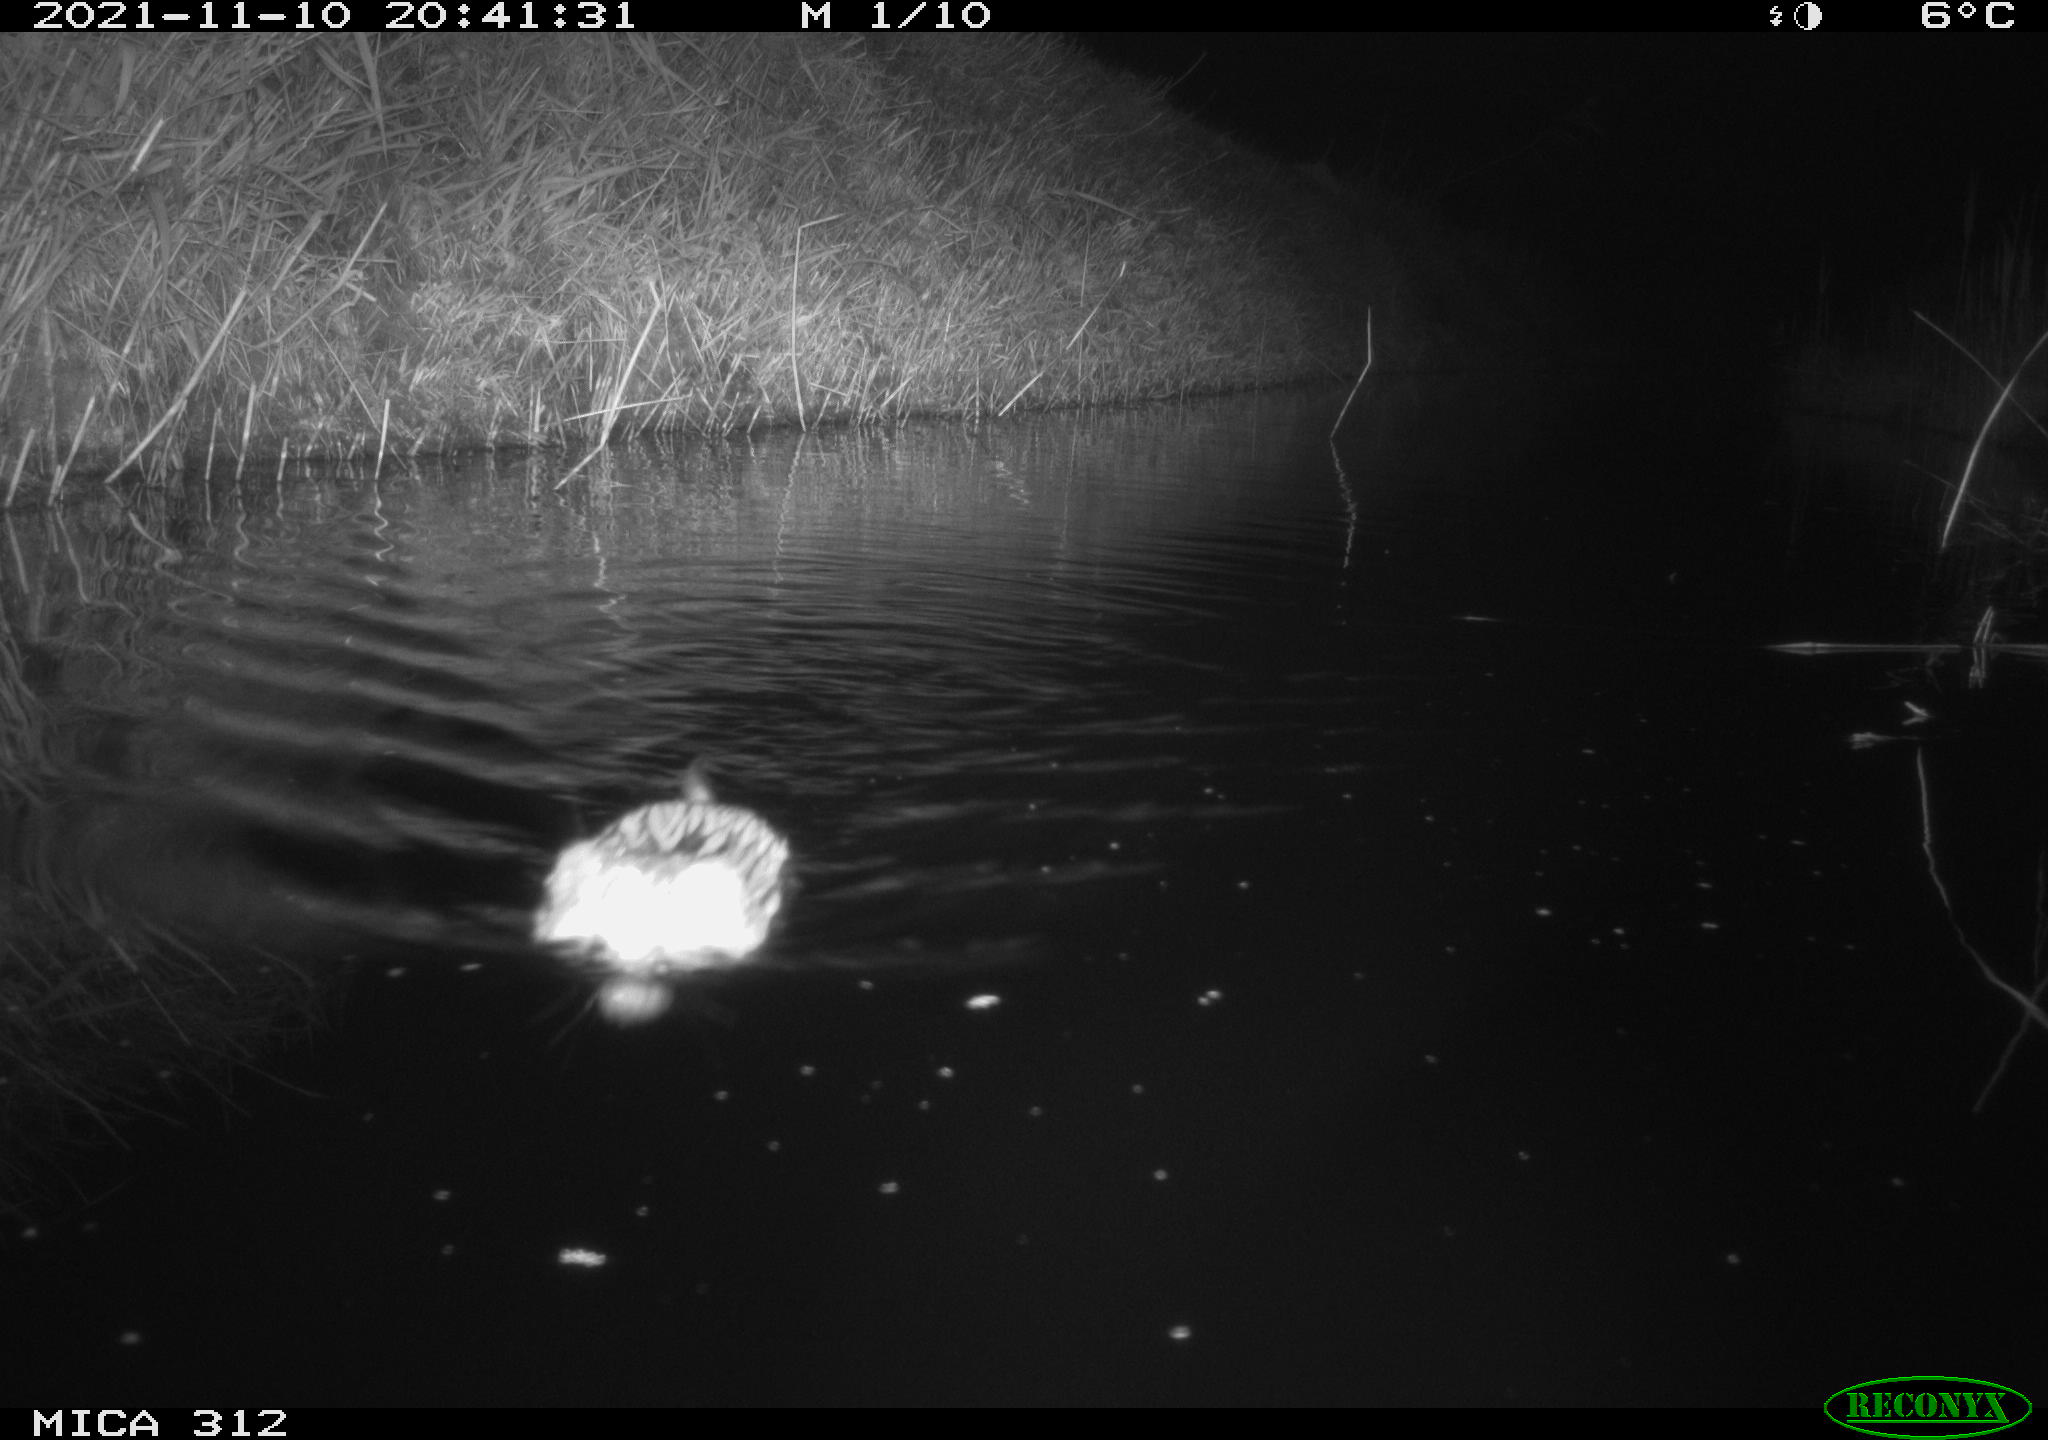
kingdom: Animalia
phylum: Chordata
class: Mammalia
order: Rodentia
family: Cricetidae
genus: Ondatra
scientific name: Ondatra zibethicus
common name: Muskrat
